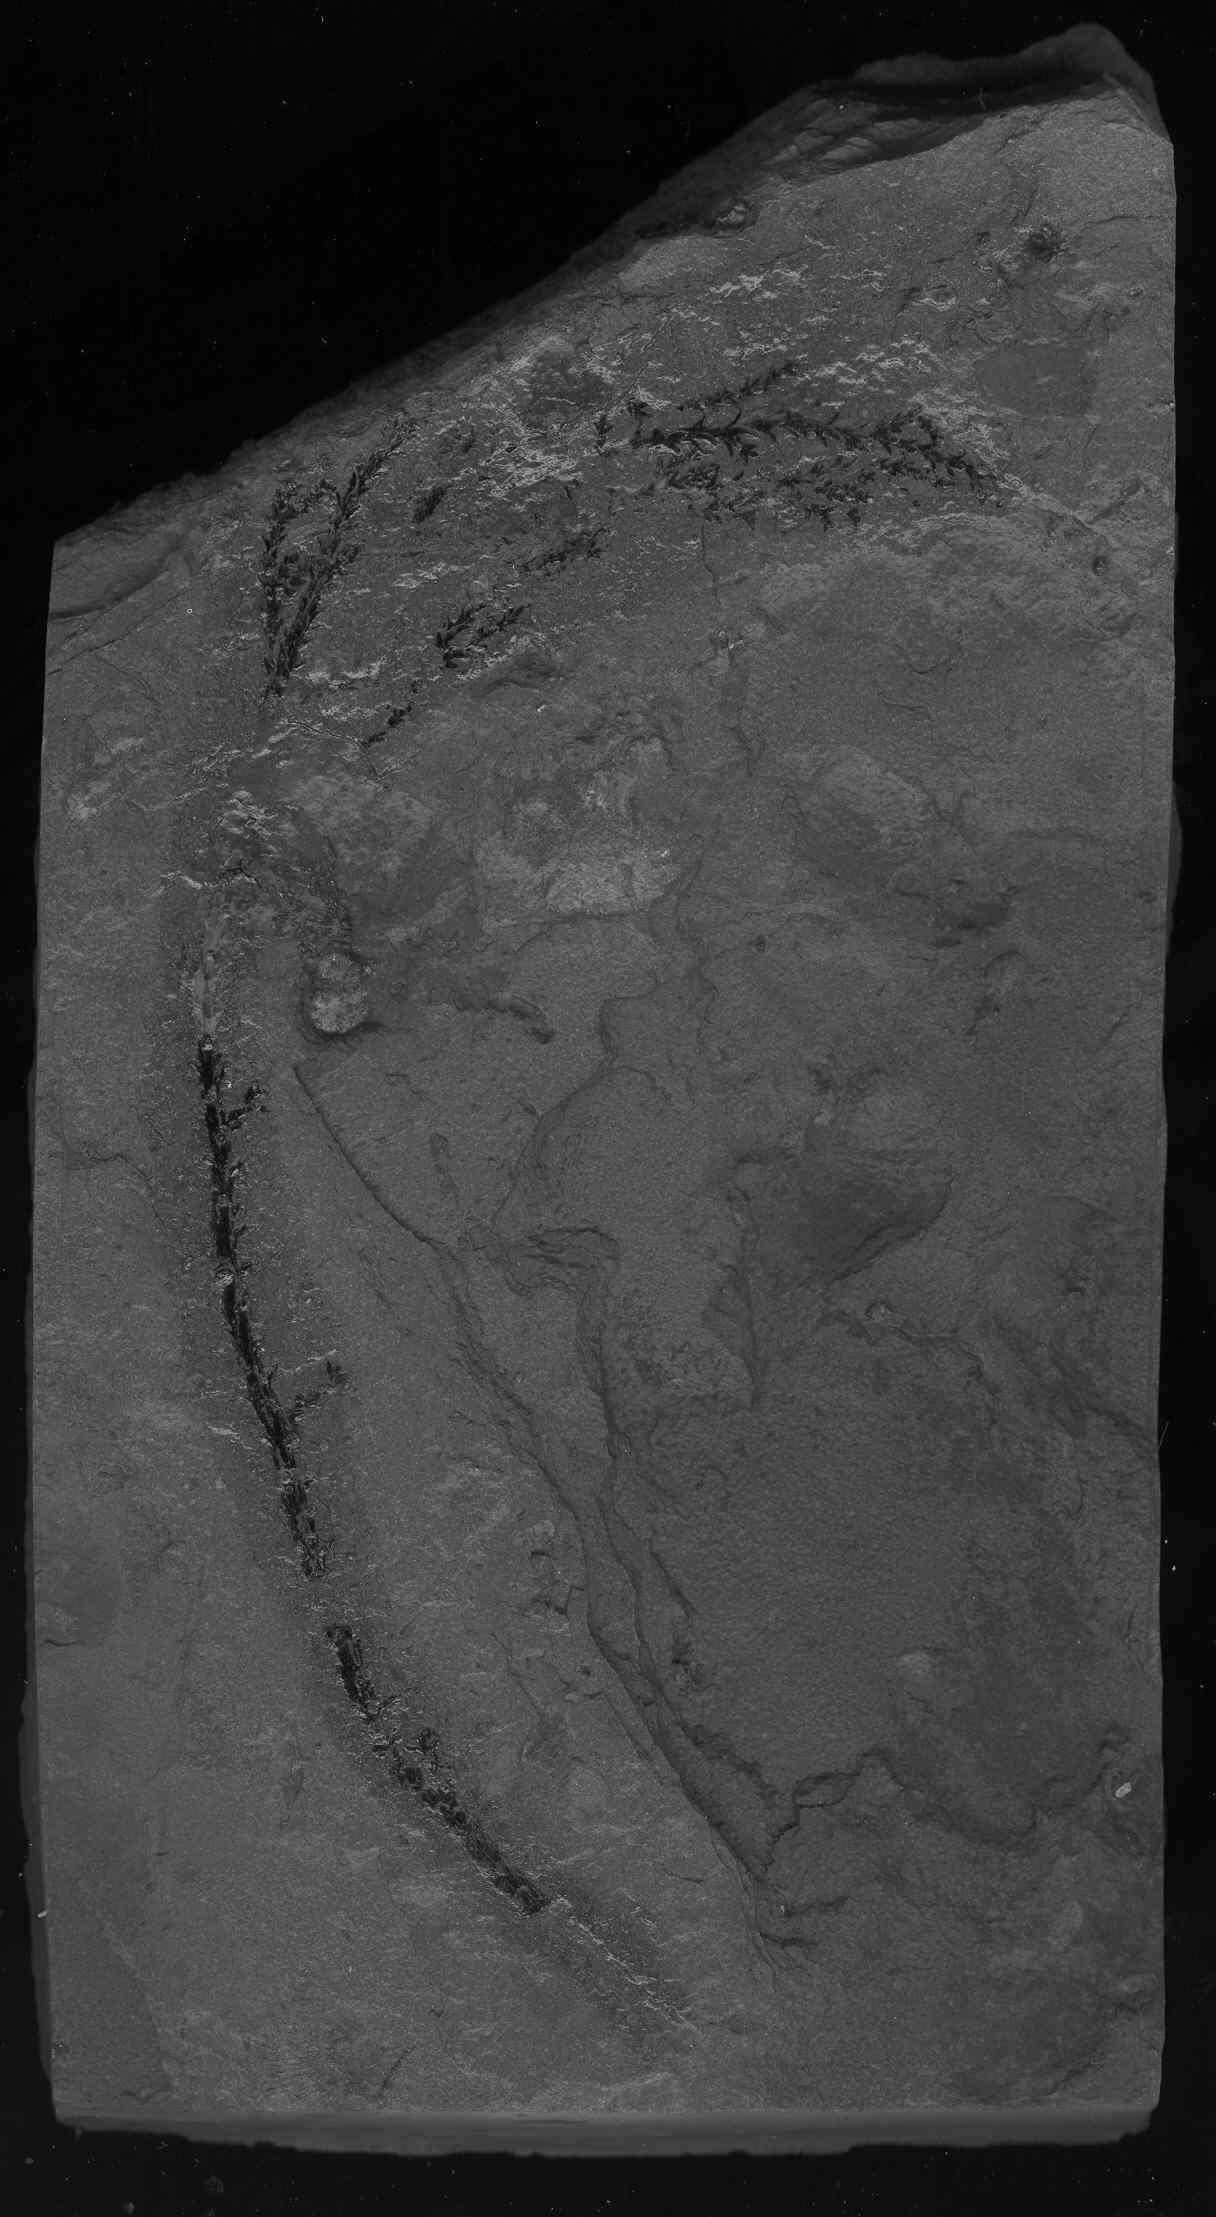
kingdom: Plantae
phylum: Tracheophyta
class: Pinopsida
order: Pinales
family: Araucariaceae
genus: Araucaria
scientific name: Araucaria
